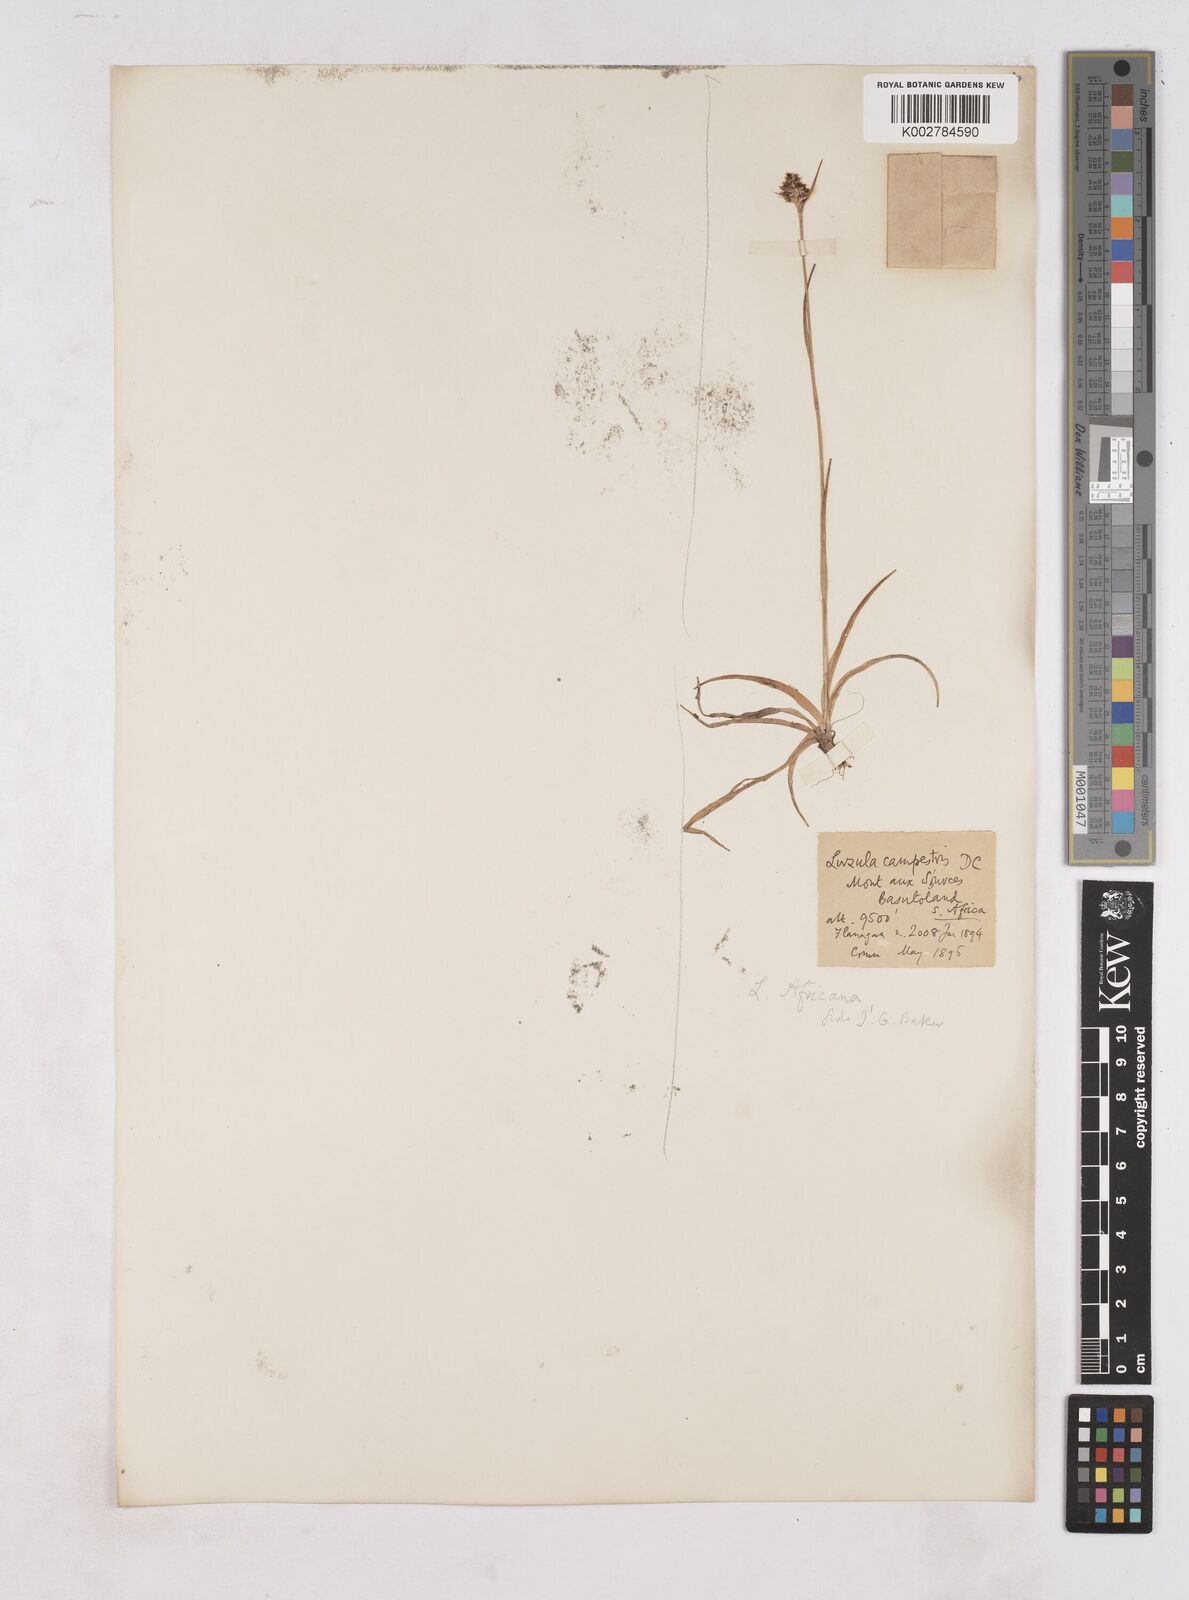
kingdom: Plantae
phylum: Tracheophyta
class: Liliopsida
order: Poales
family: Juncaceae
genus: Luzula
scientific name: Luzula africana
